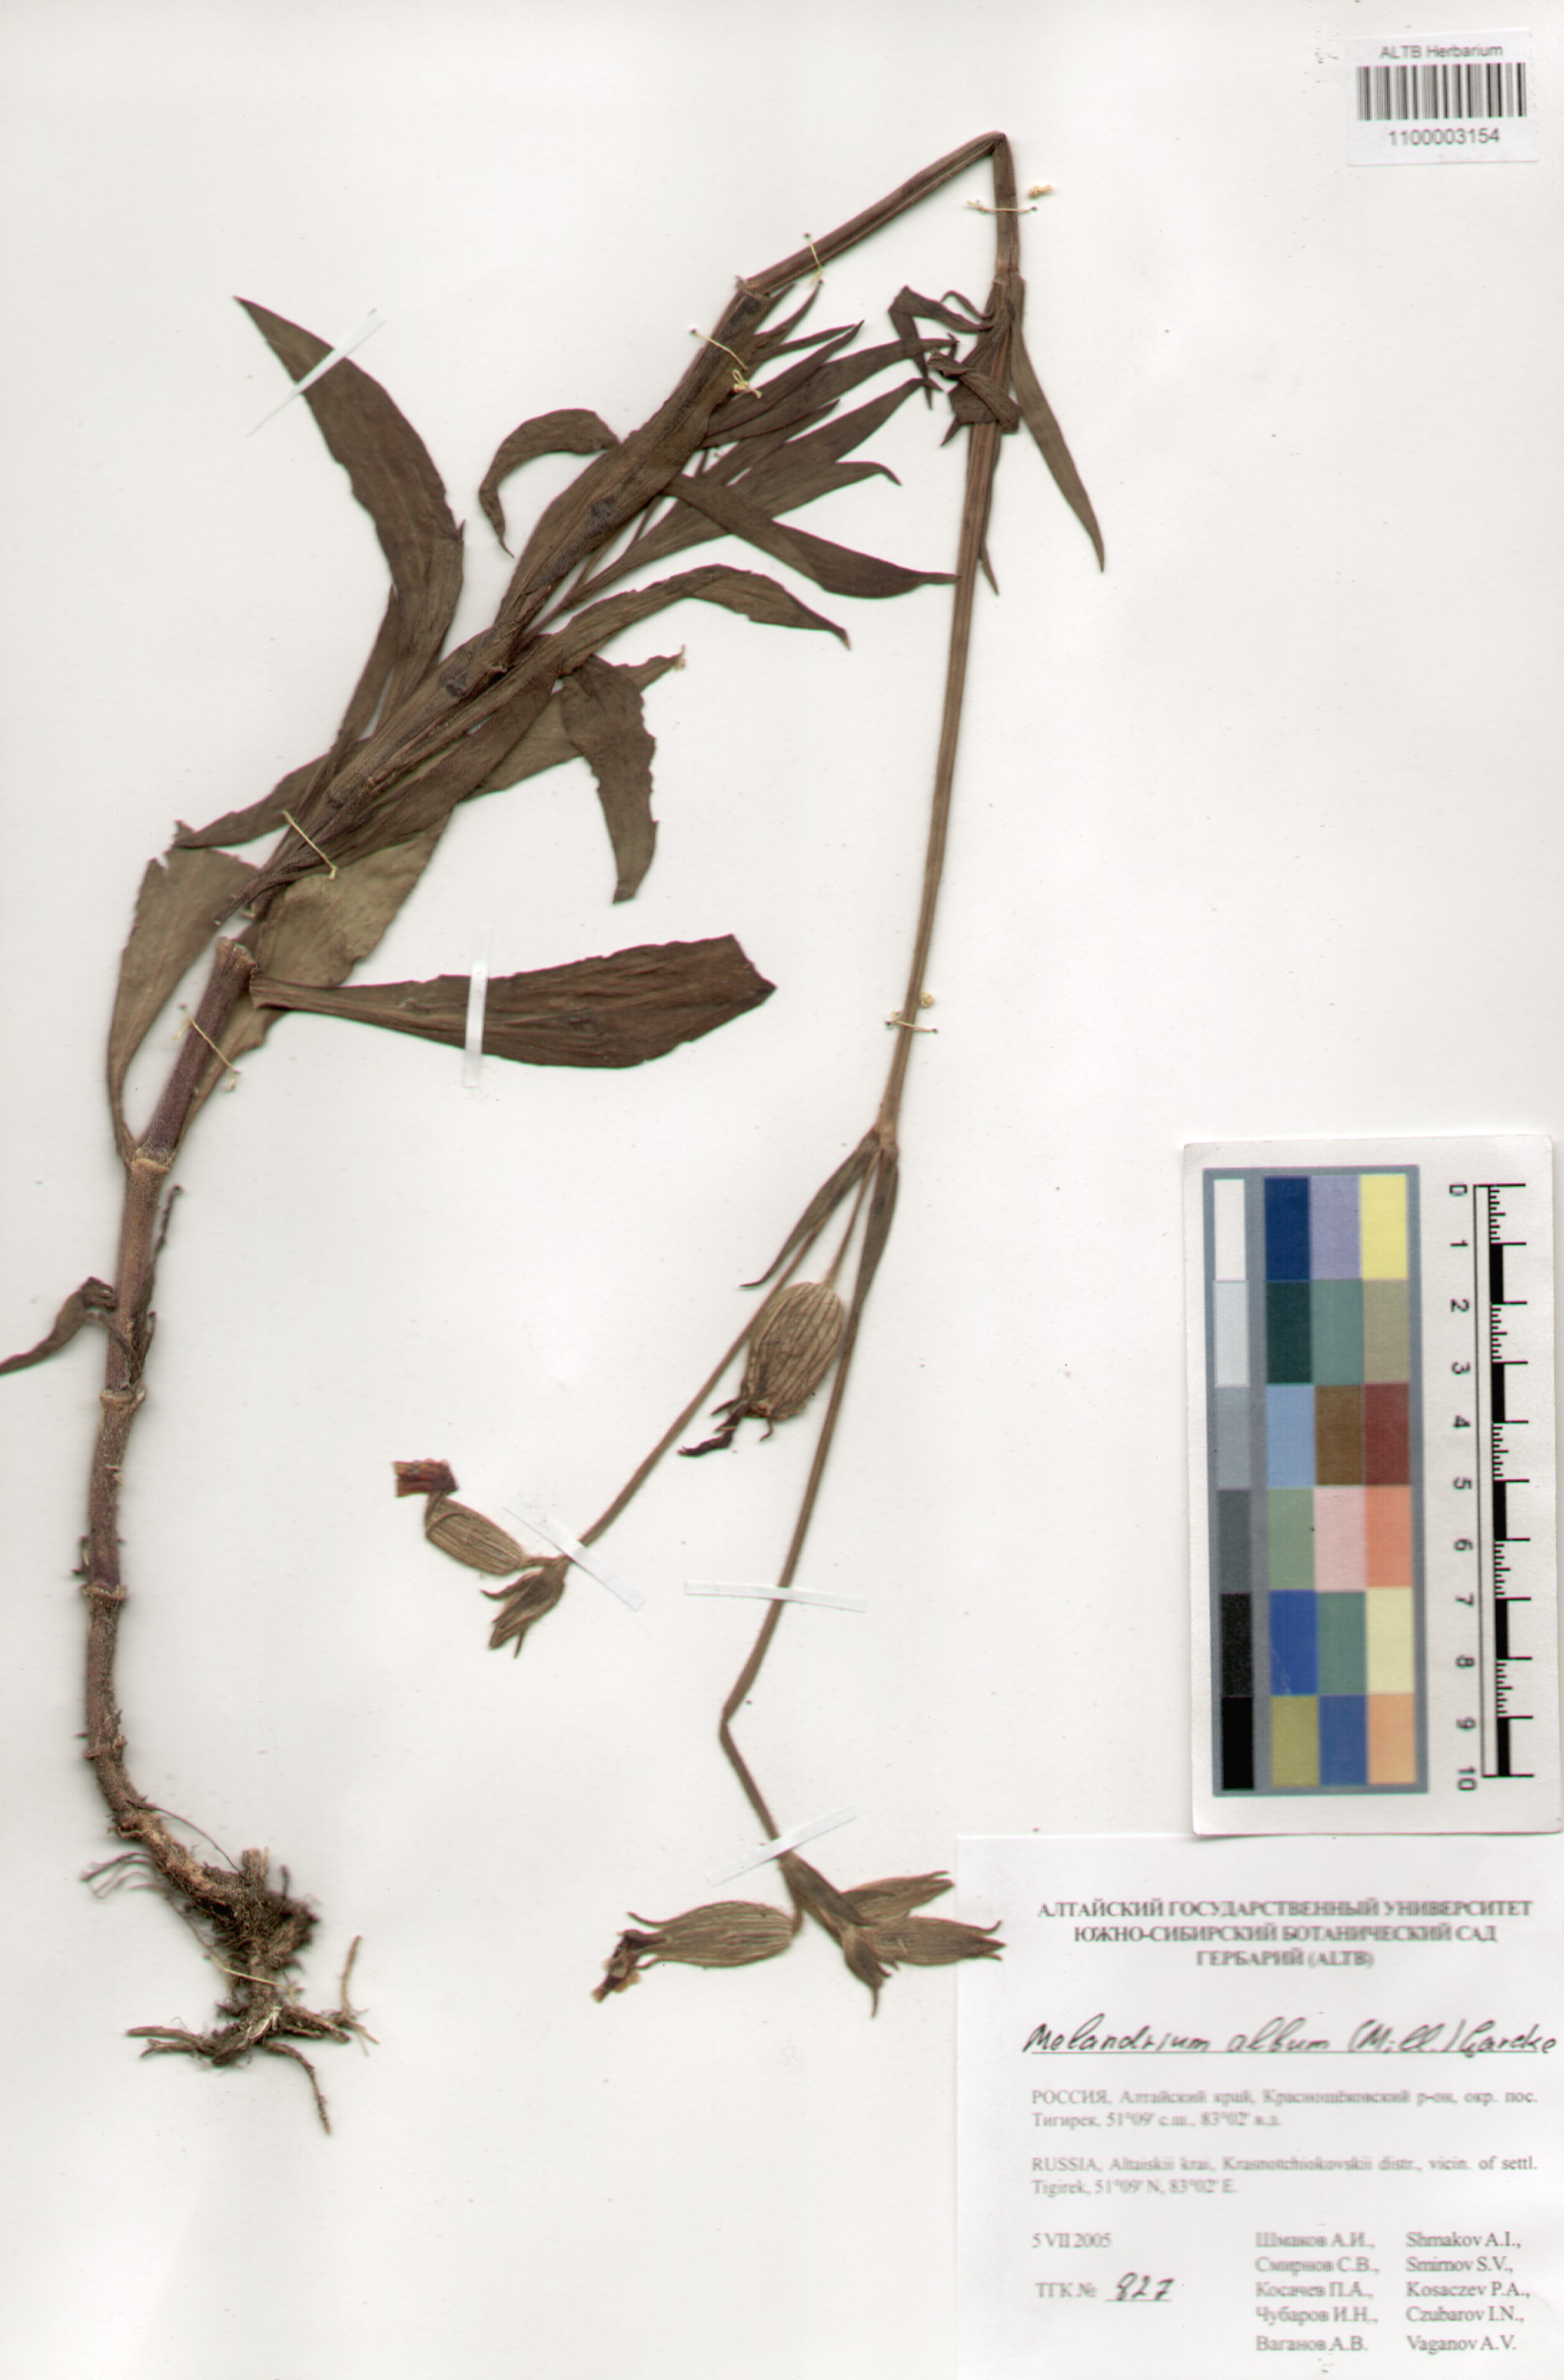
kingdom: Plantae
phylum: Tracheophyta
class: Magnoliopsida
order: Caryophyllales
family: Caryophyllaceae
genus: Silene
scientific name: Silene latifolia
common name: White campion
